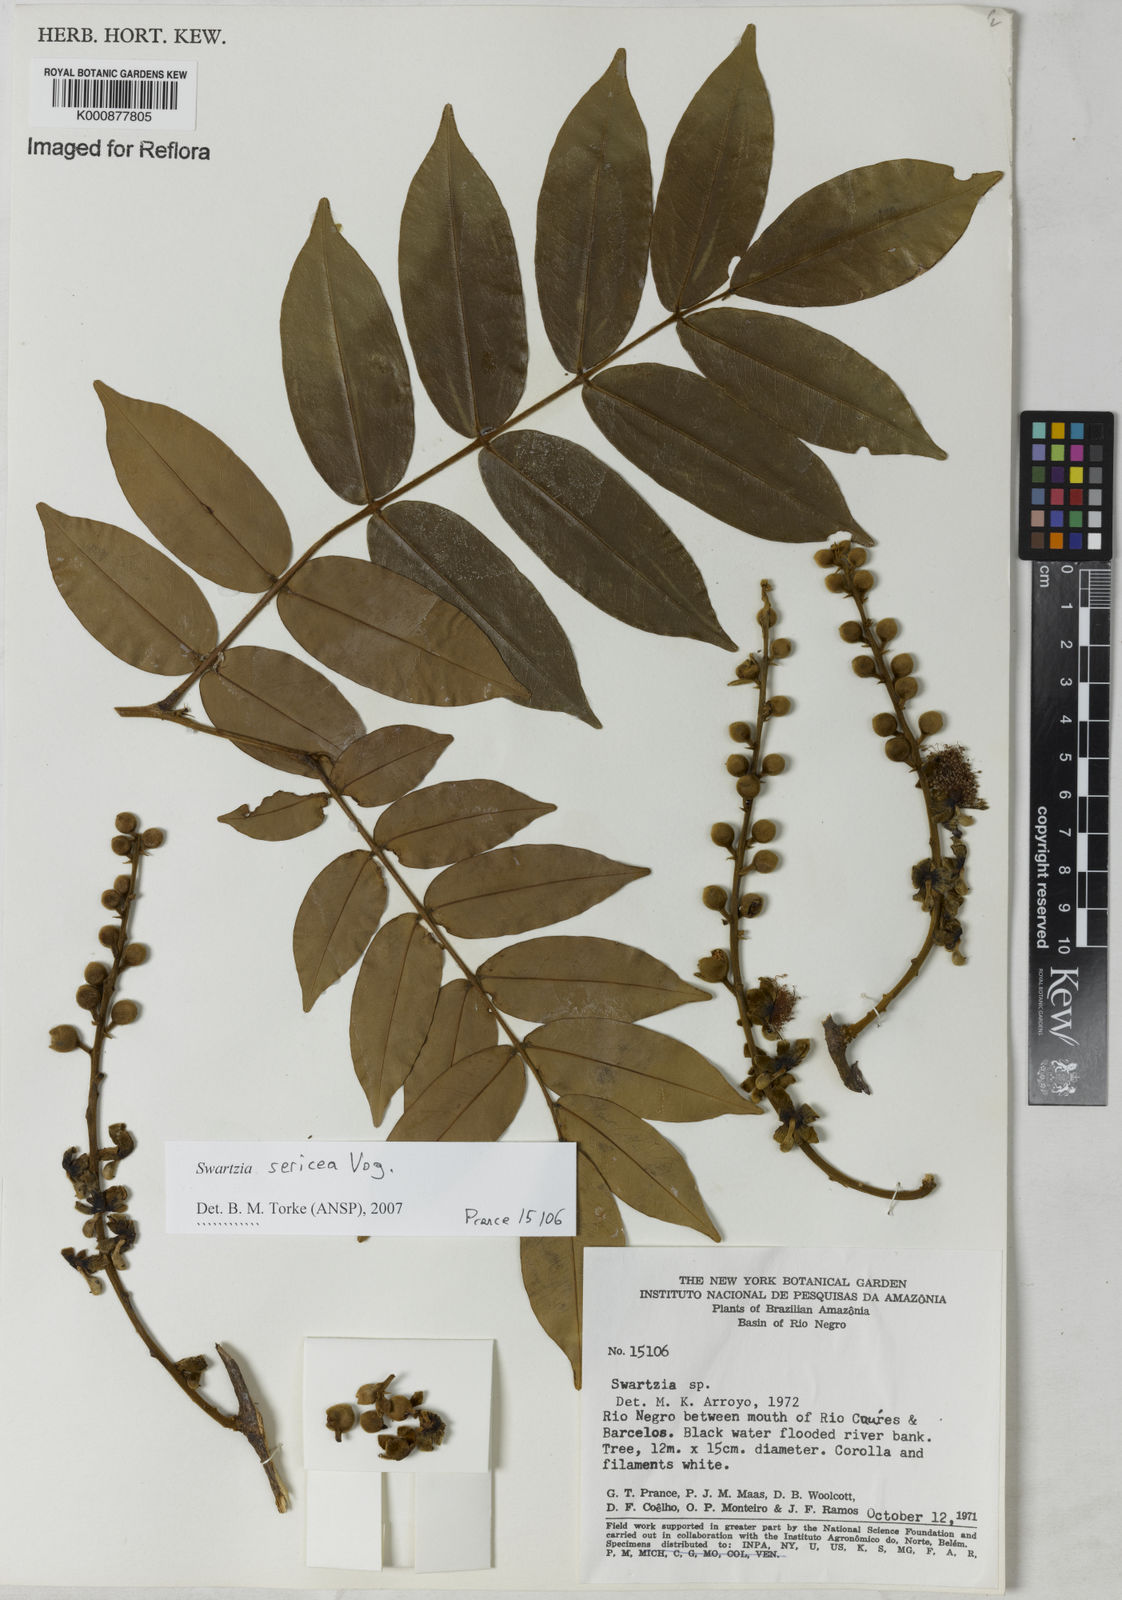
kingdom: Plantae
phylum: Tracheophyta
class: Magnoliopsida
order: Fabales
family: Fabaceae
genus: Swartzia
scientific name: Swartzia sericea
